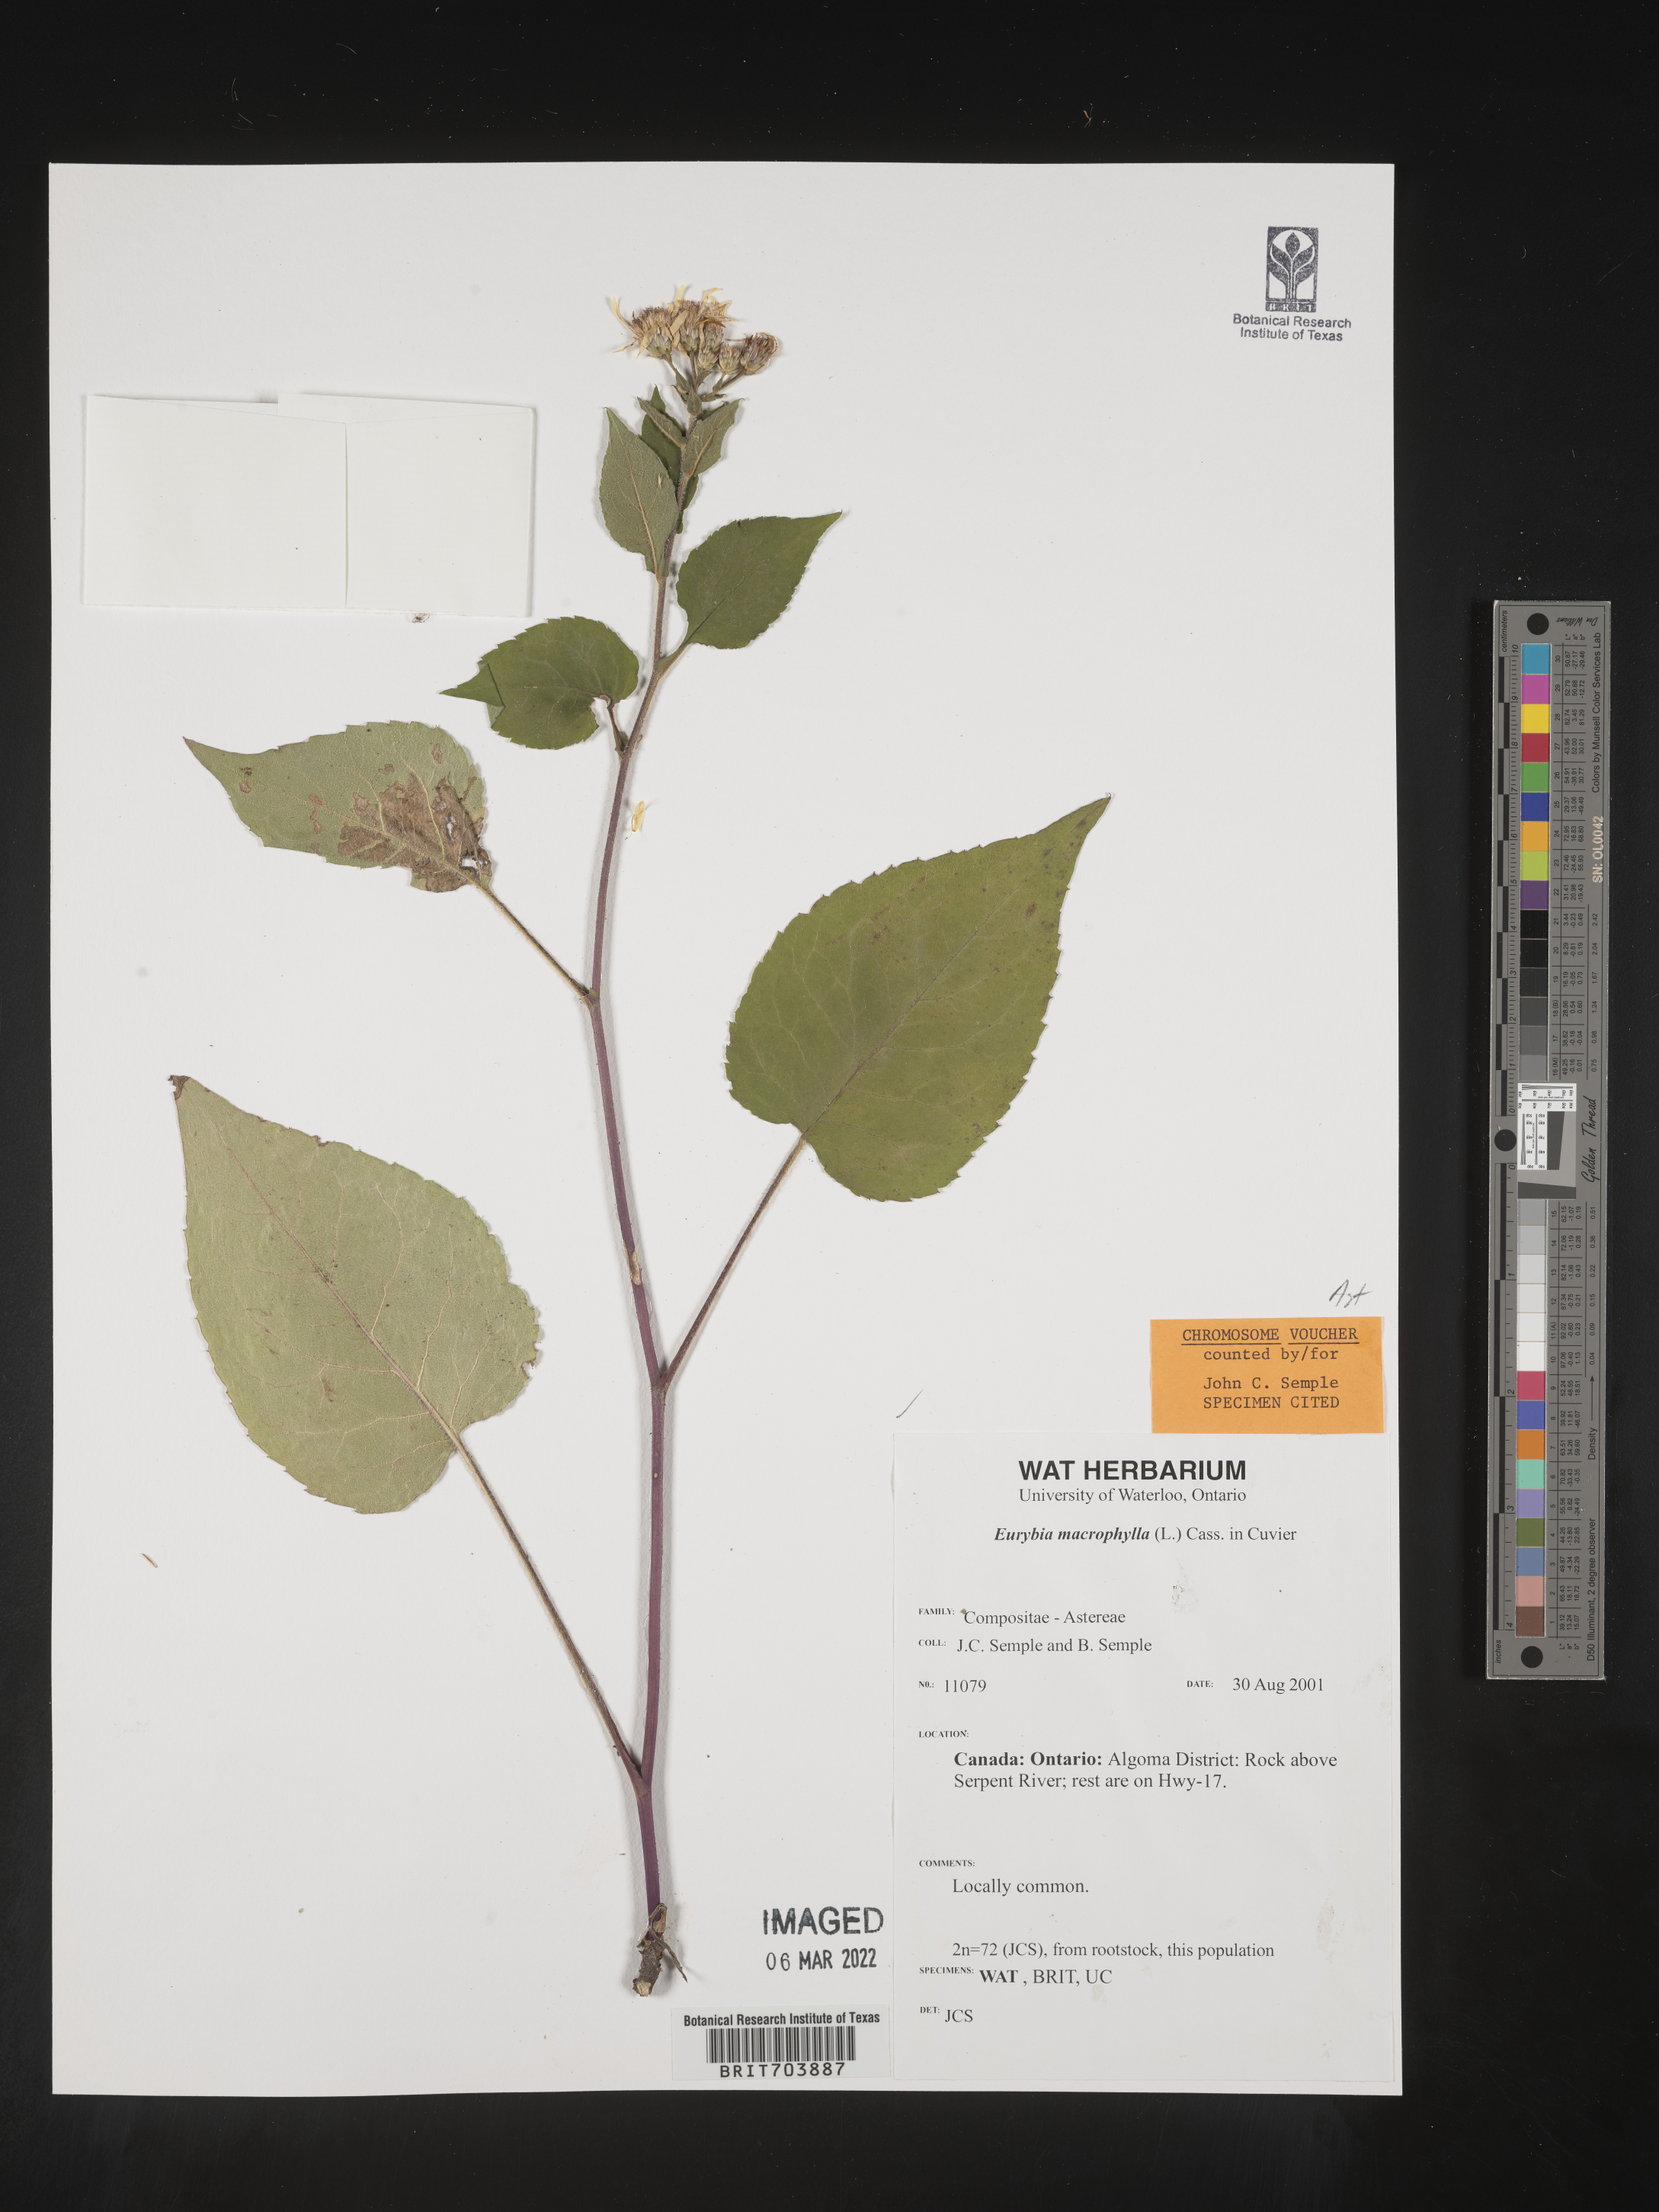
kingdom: Plantae
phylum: Tracheophyta
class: Magnoliopsida
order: Asterales
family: Asteraceae
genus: Eurybia
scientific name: Eurybia macrophylla
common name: Big-leaved aster
